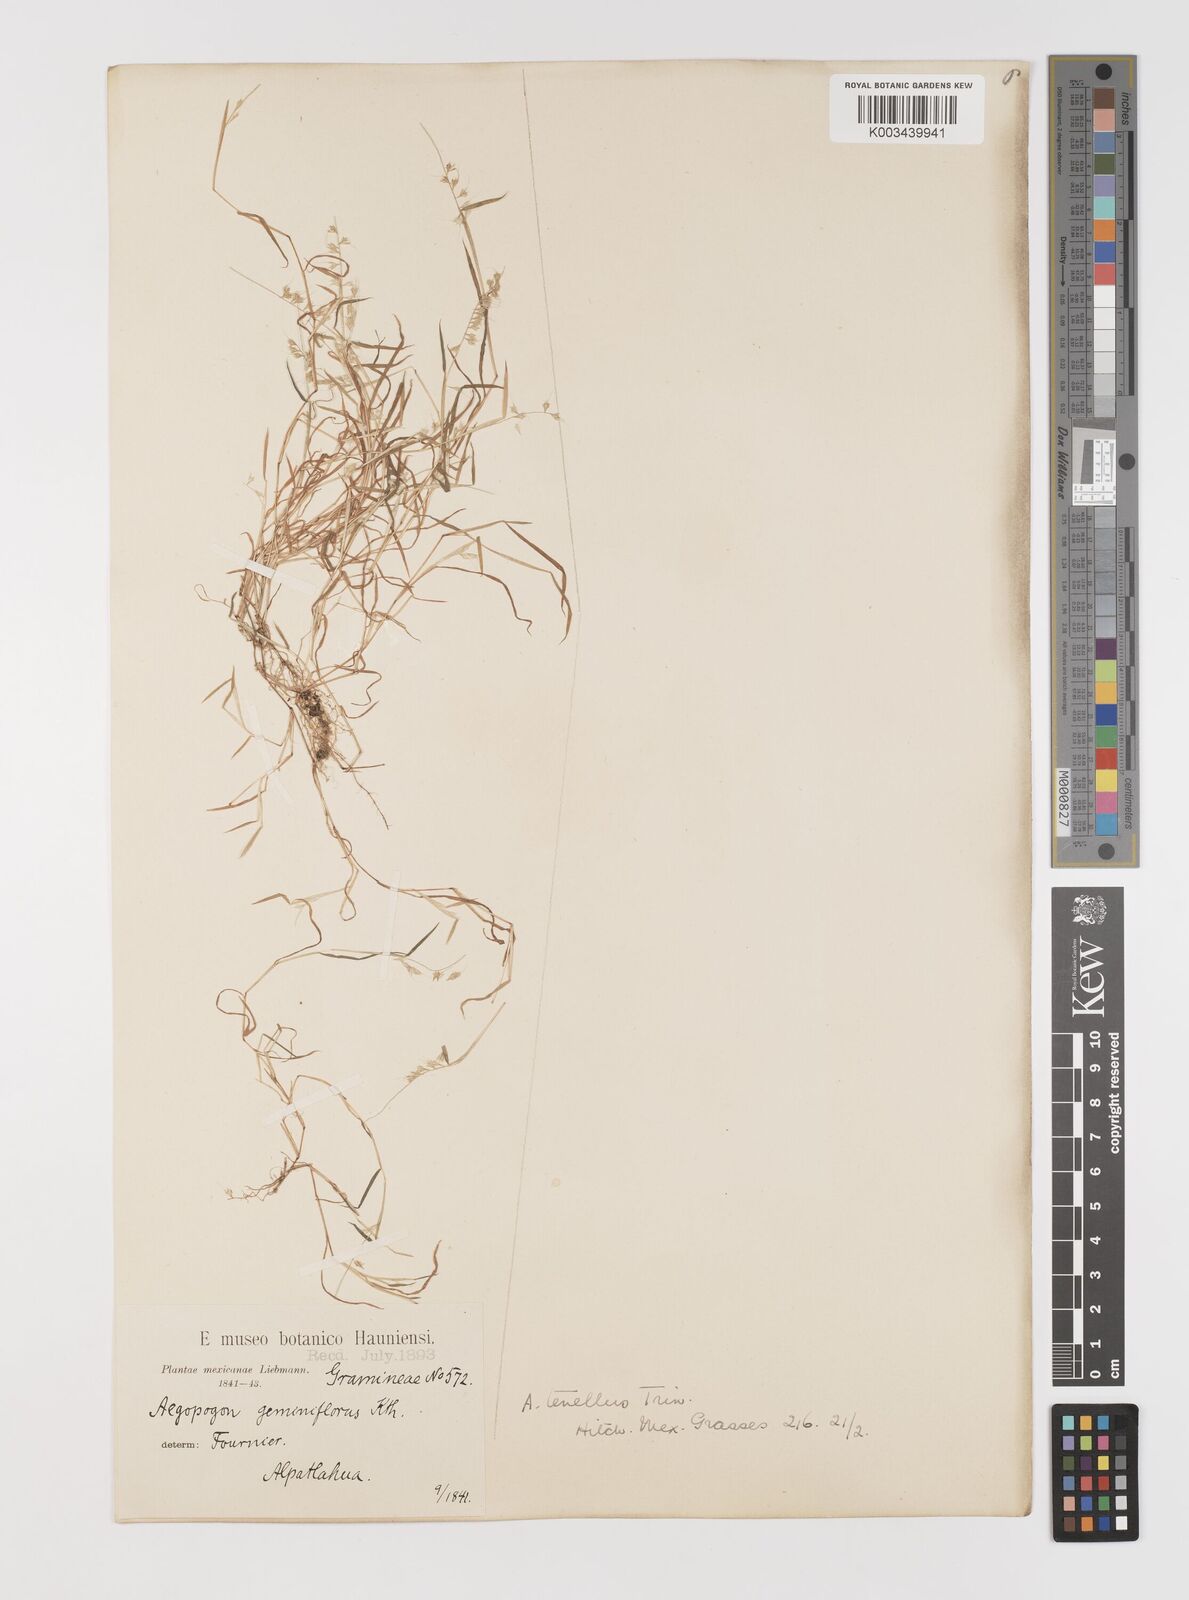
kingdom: Plantae
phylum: Tracheophyta
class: Liliopsida
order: Poales
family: Poaceae
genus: Muhlenbergia
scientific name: Muhlenbergia uniseta
